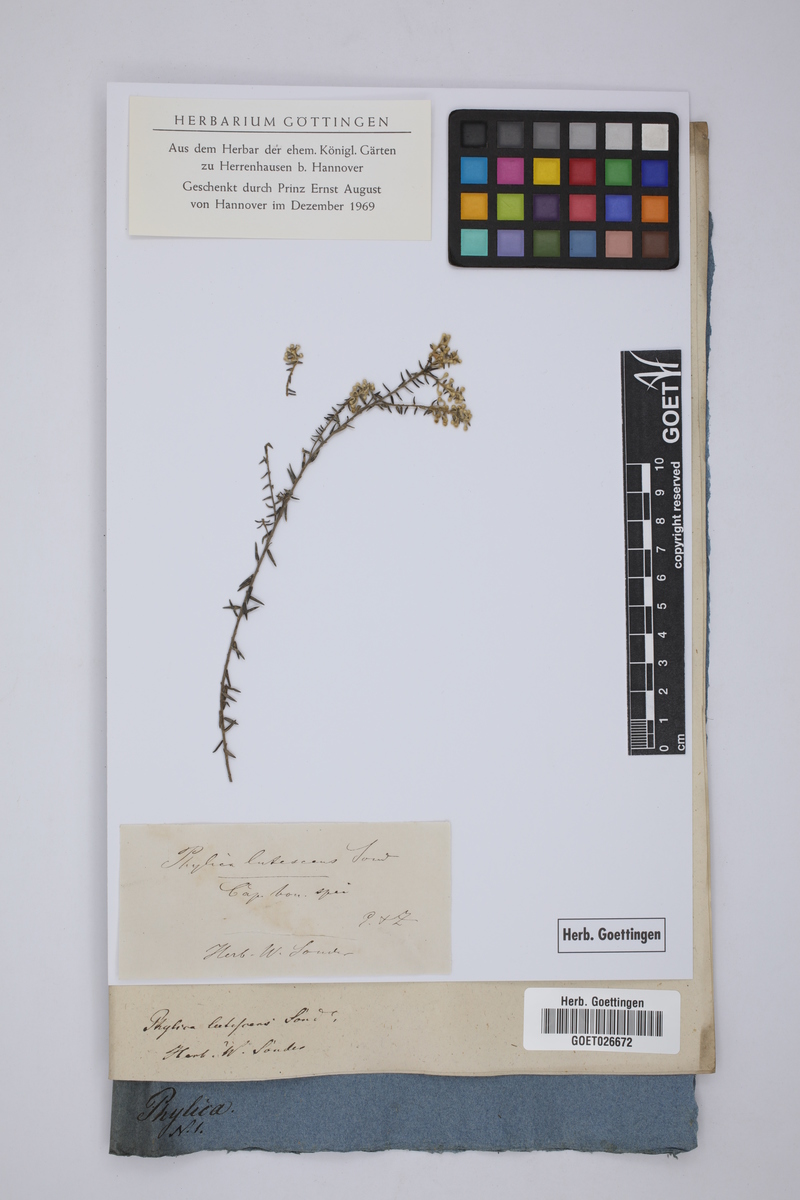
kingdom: Plantae
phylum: Tracheophyta
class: Magnoliopsida
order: Rosales
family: Rhamnaceae
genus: Phylica
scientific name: Phylica axillaris
